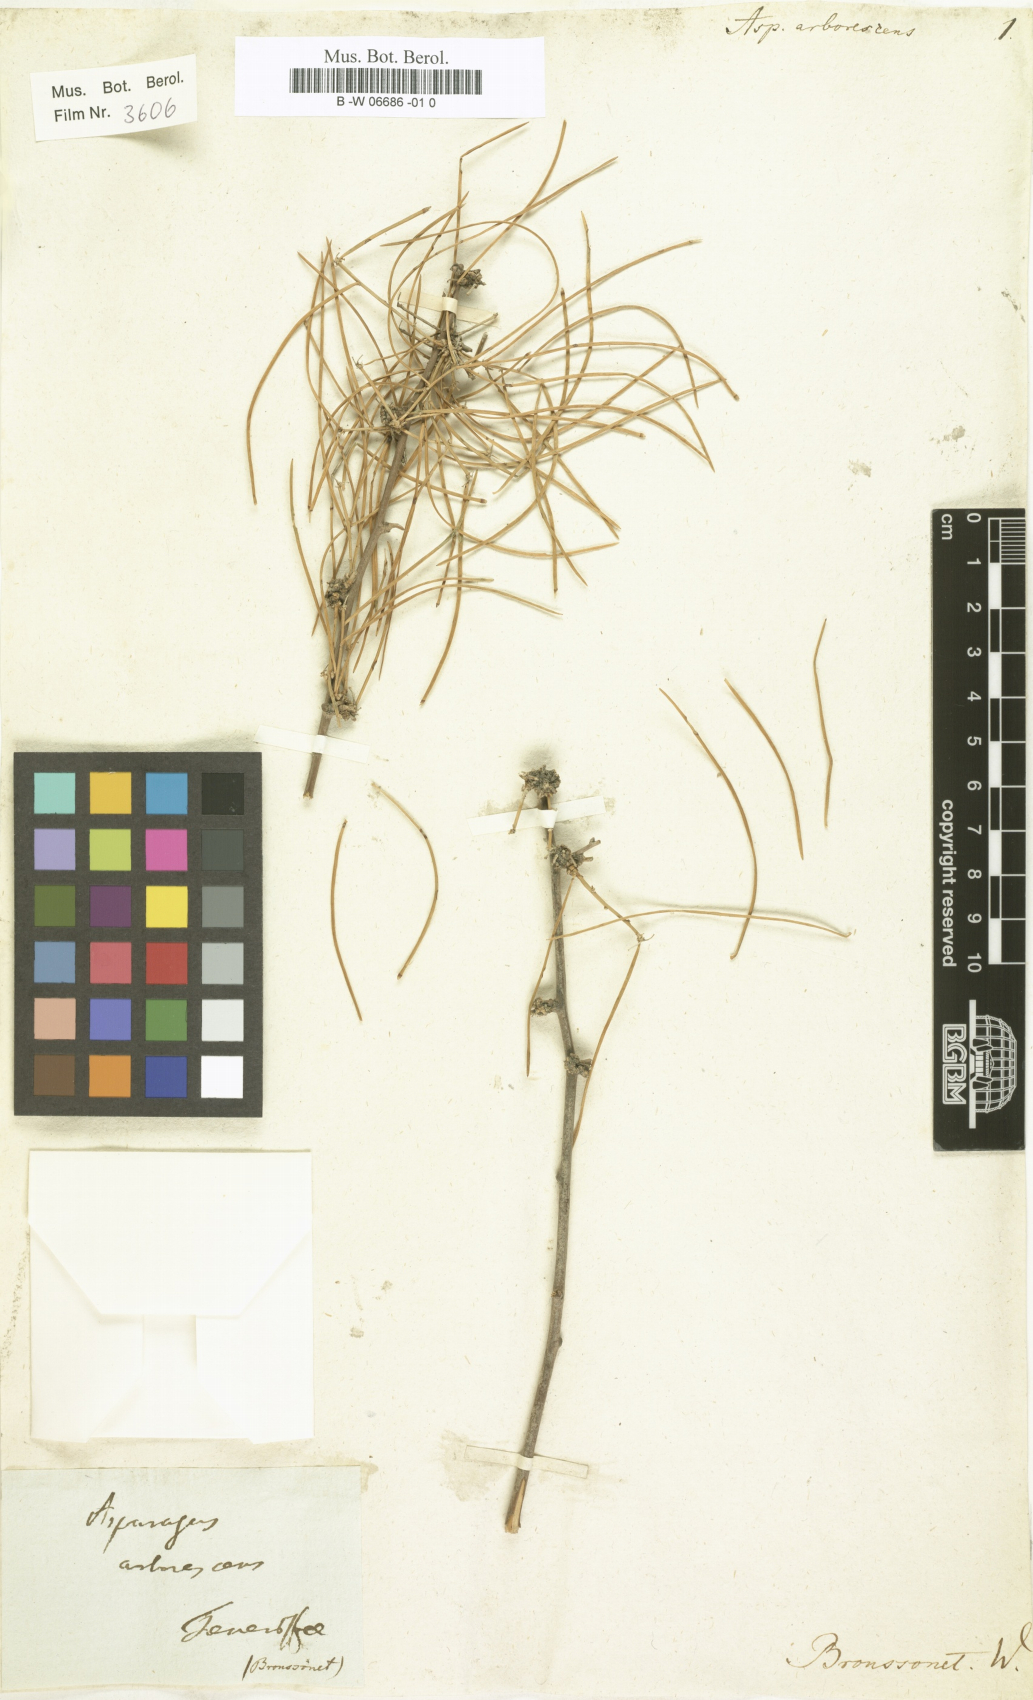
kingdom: Plantae
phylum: Tracheophyta
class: Liliopsida
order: Asparagales
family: Asparagaceae
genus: Asparagus
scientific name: Asparagus arborescens
